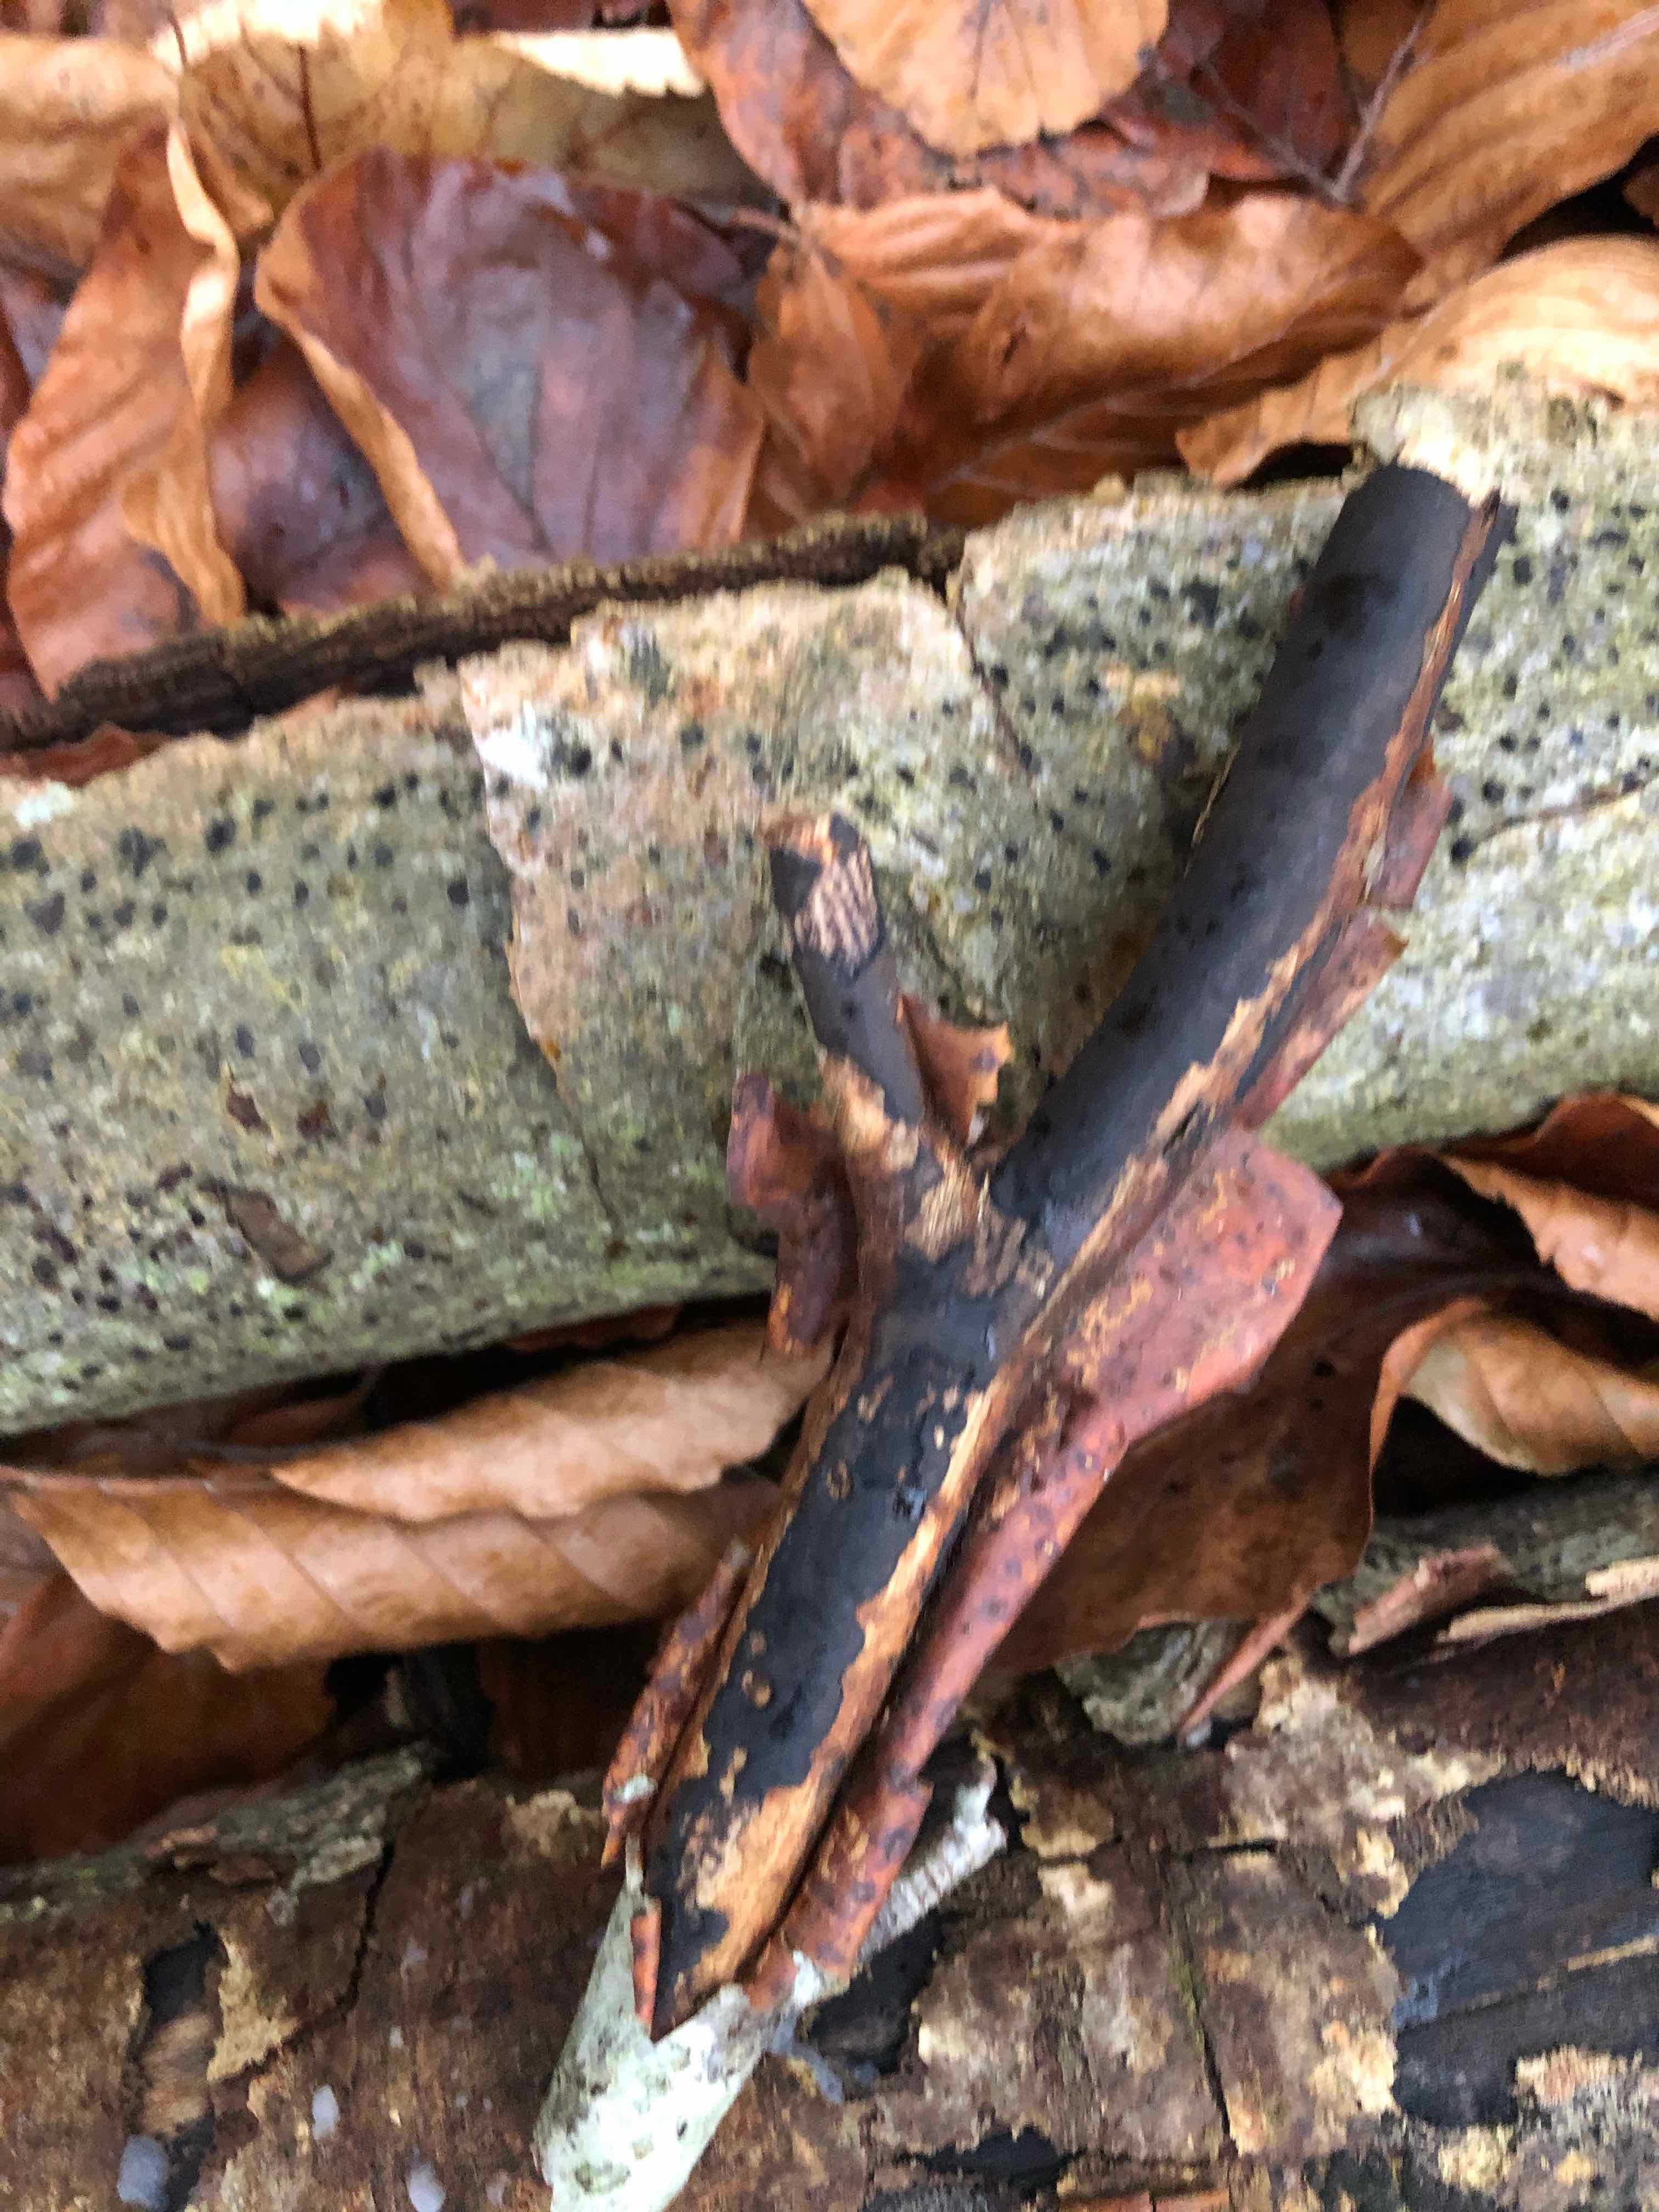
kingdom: Fungi
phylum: Ascomycota
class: Sordariomycetes
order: Xylariales
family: Diatrypaceae
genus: Diatrype
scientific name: Diatrype decorticata
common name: barksprænger-kulskorpe
